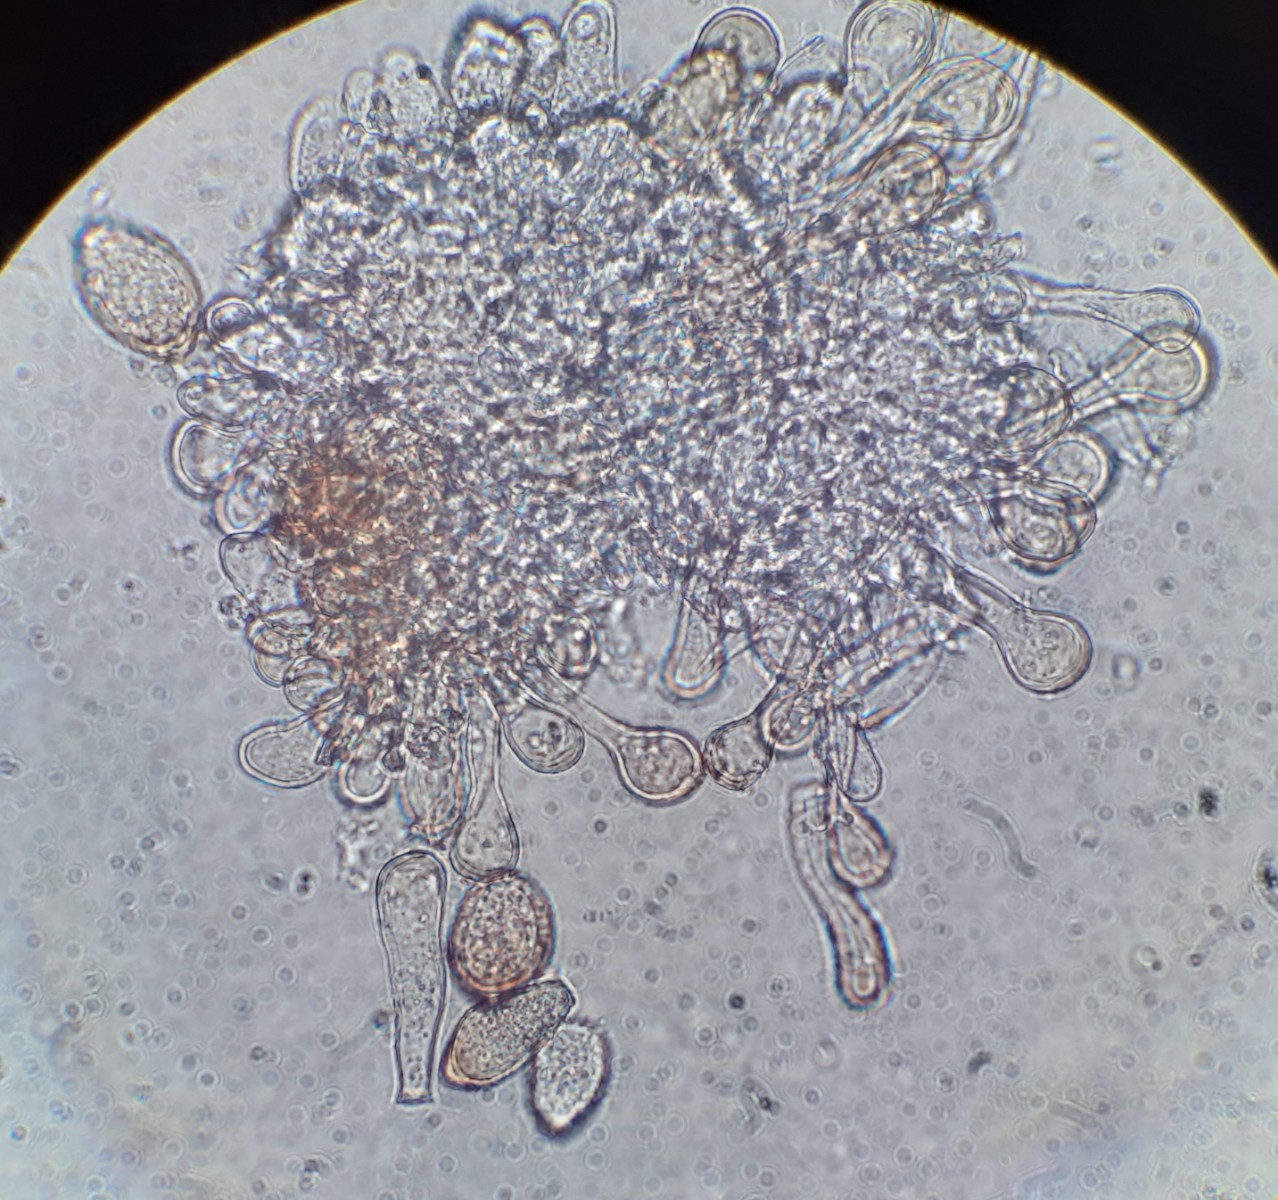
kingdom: Fungi
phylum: Basidiomycota
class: Pucciniomycetes
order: Pucciniales
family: Tranzscheliaceae
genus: Tranzschelia
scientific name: Tranzschelia pruni-spinosae
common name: Blackthorn rust
